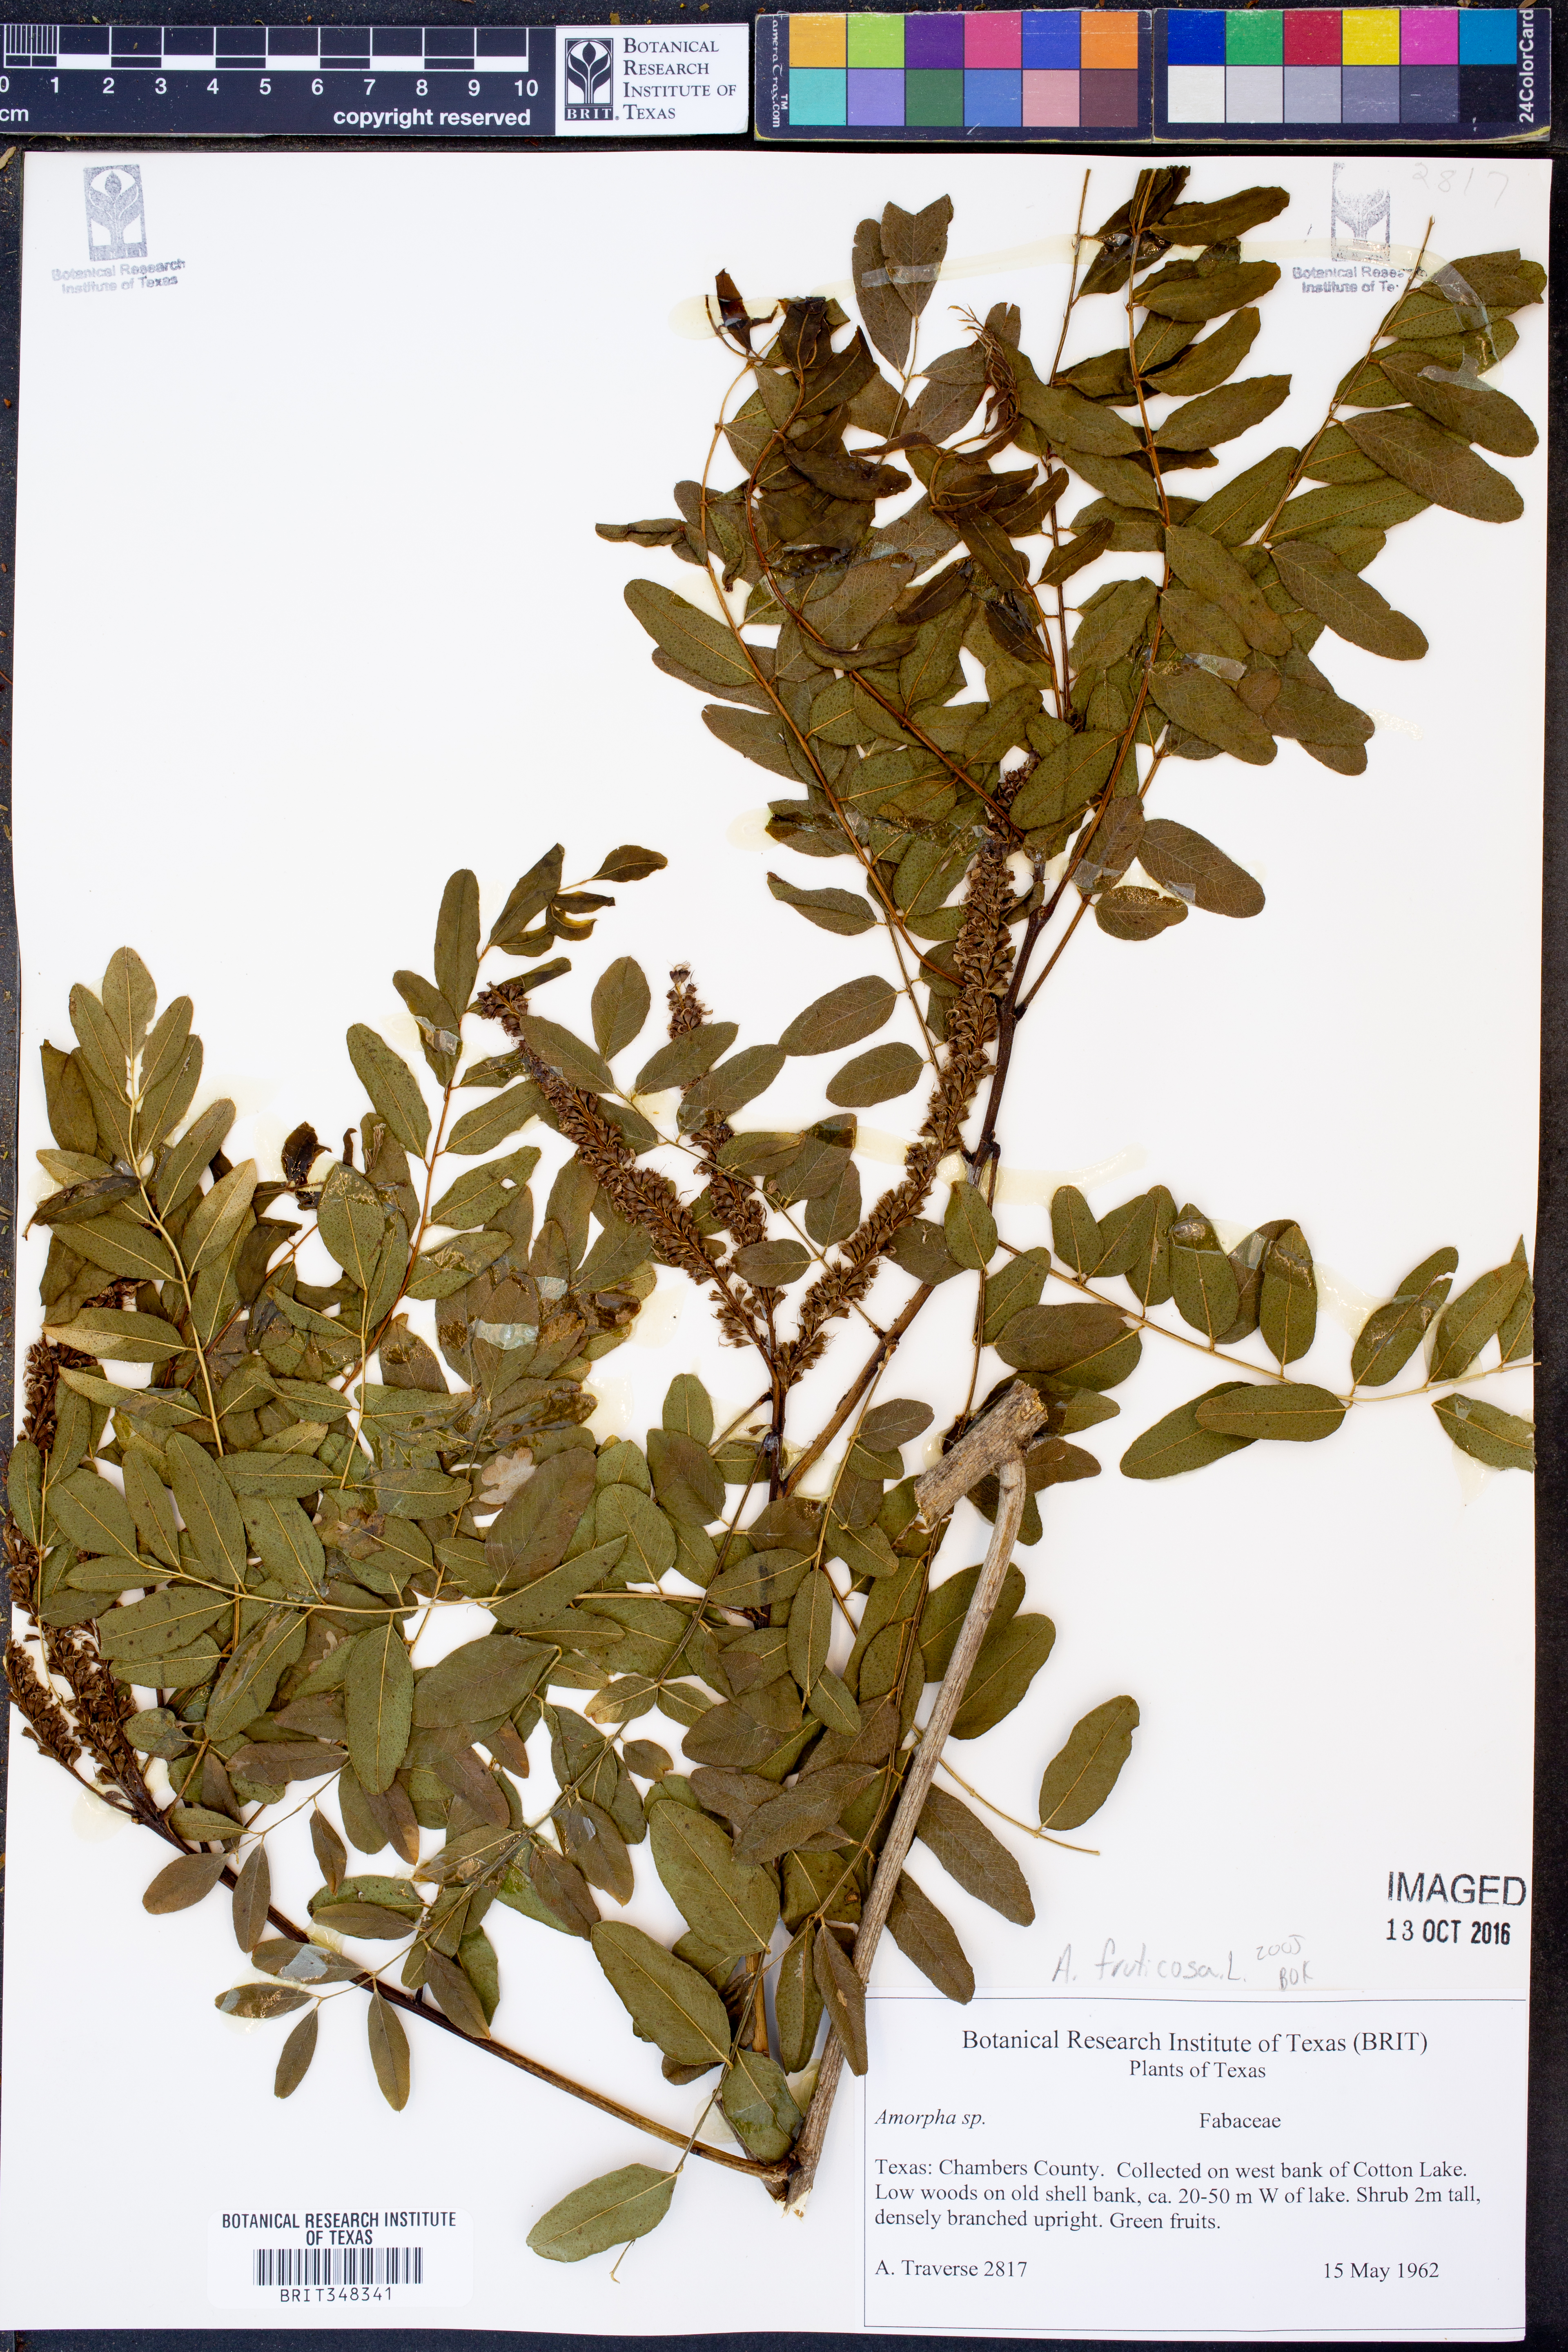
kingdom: Plantae
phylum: Tracheophyta
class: Magnoliopsida
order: Fabales
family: Fabaceae
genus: Amorpha
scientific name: Amorpha fruticosa
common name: False indigo
